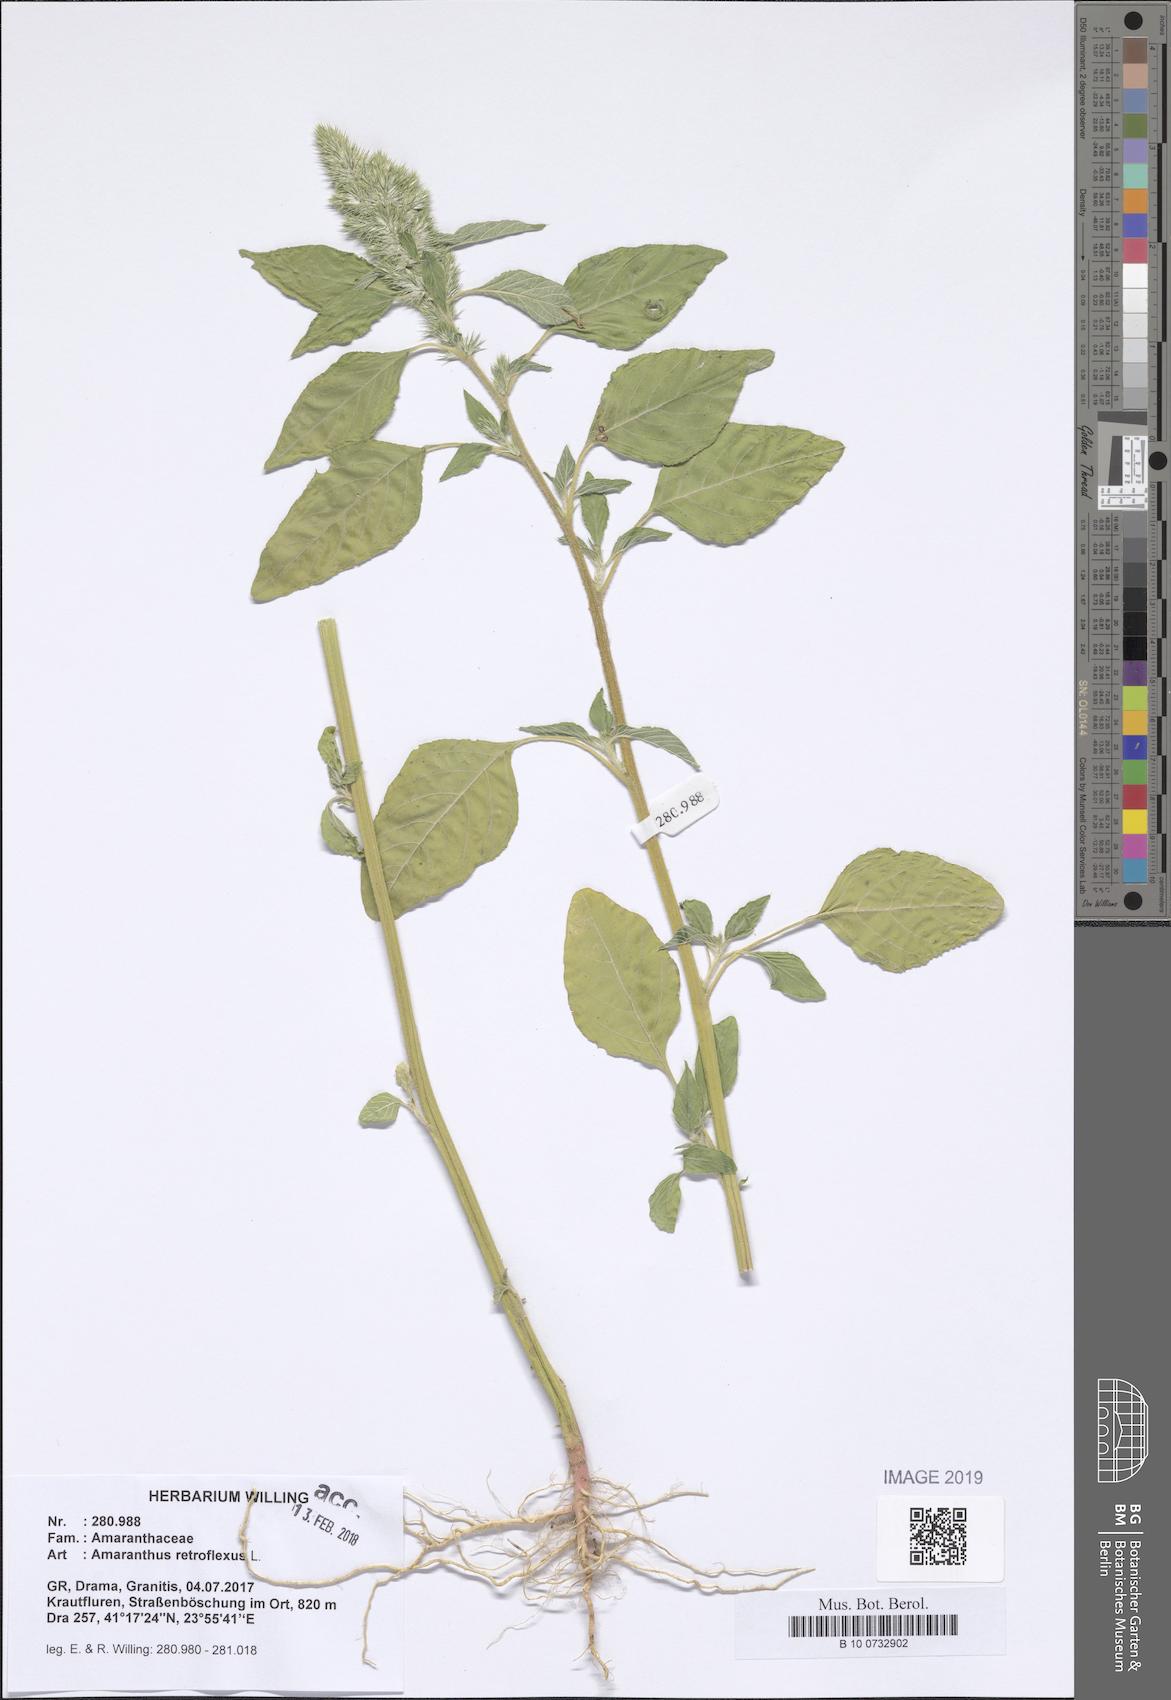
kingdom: Plantae
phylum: Tracheophyta
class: Magnoliopsida
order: Caryophyllales
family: Amaranthaceae
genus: Amaranthus
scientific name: Amaranthus retroflexus
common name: Redroot amaranth
